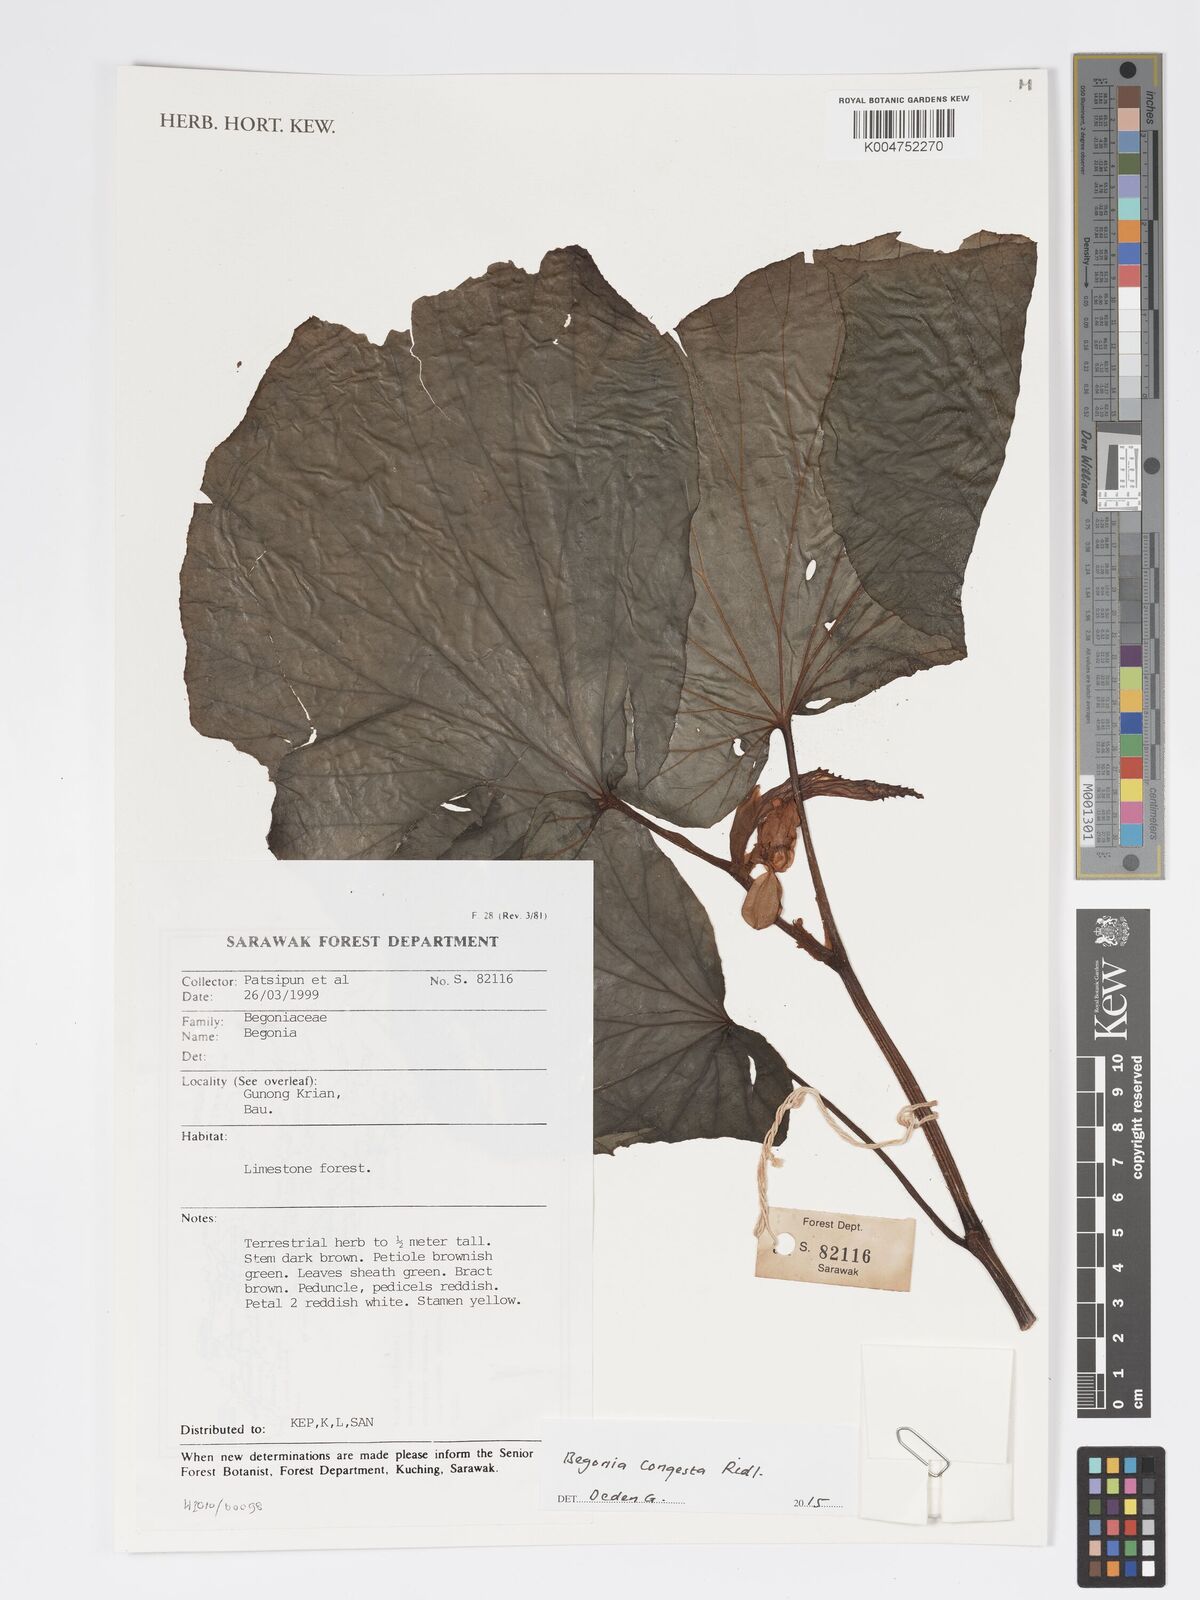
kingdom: Plantae
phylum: Tracheophyta
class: Magnoliopsida
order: Cucurbitales
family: Begoniaceae
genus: Begonia
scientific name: Begonia congesta
